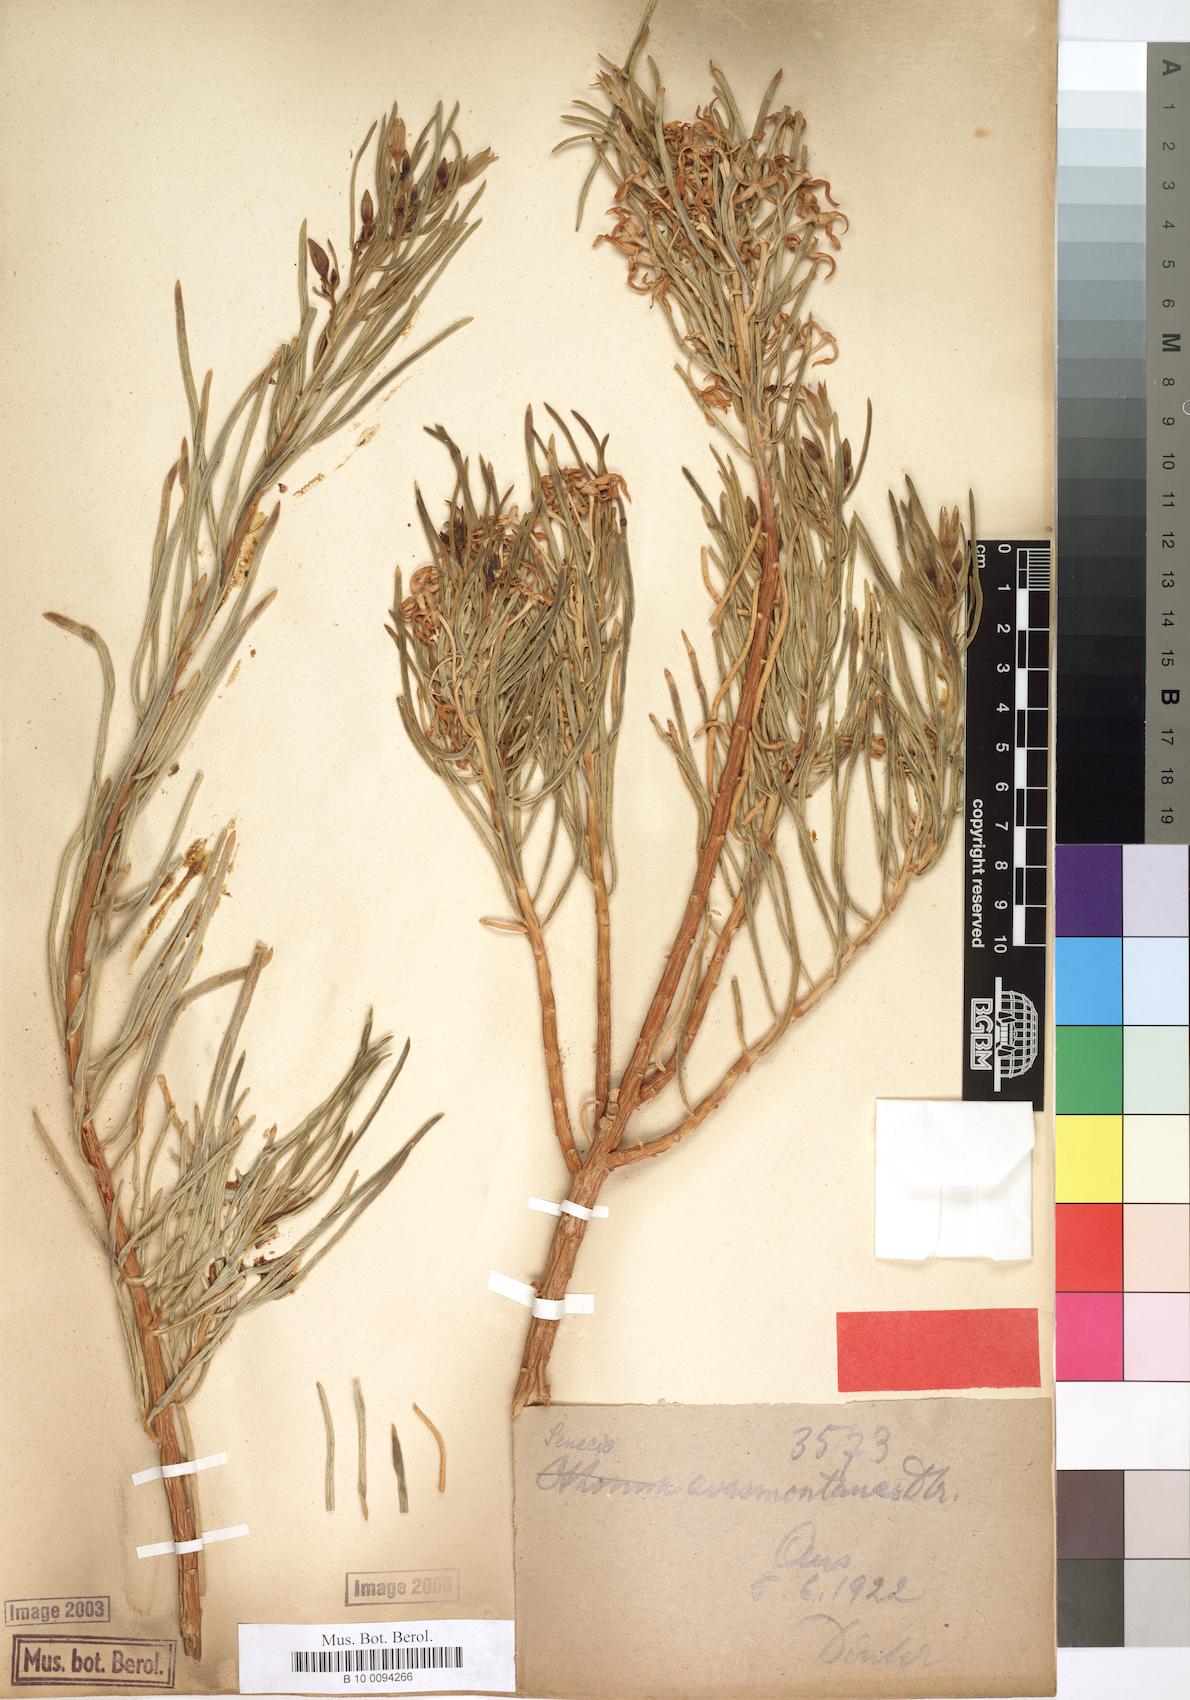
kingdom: Plantae
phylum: Tracheophyta
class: Magnoliopsida
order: Asterales
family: Asteraceae
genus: Lopholaena
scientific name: Lopholaena cneorifolia
